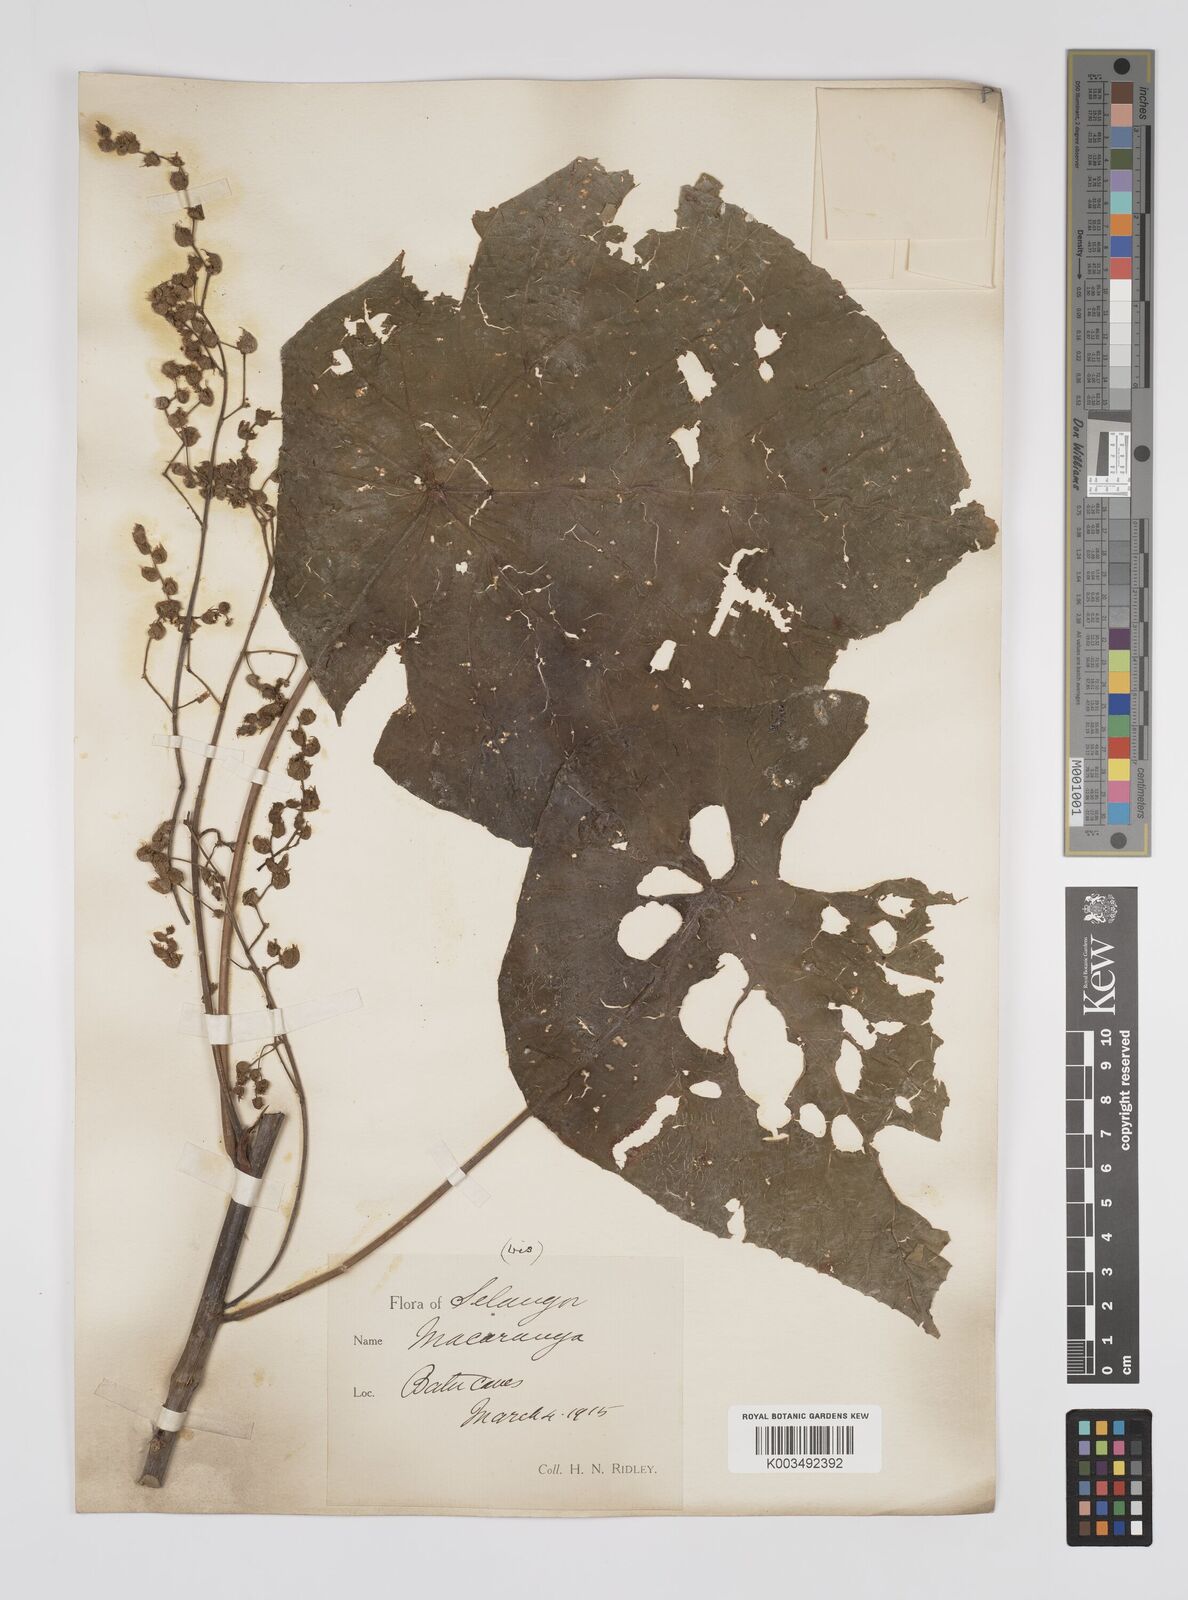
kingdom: Plantae
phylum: Tracheophyta
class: Magnoliopsida
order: Malpighiales
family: Euphorbiaceae
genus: Macaranga
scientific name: Macaranga tanarius
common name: Parasol leaf tree
